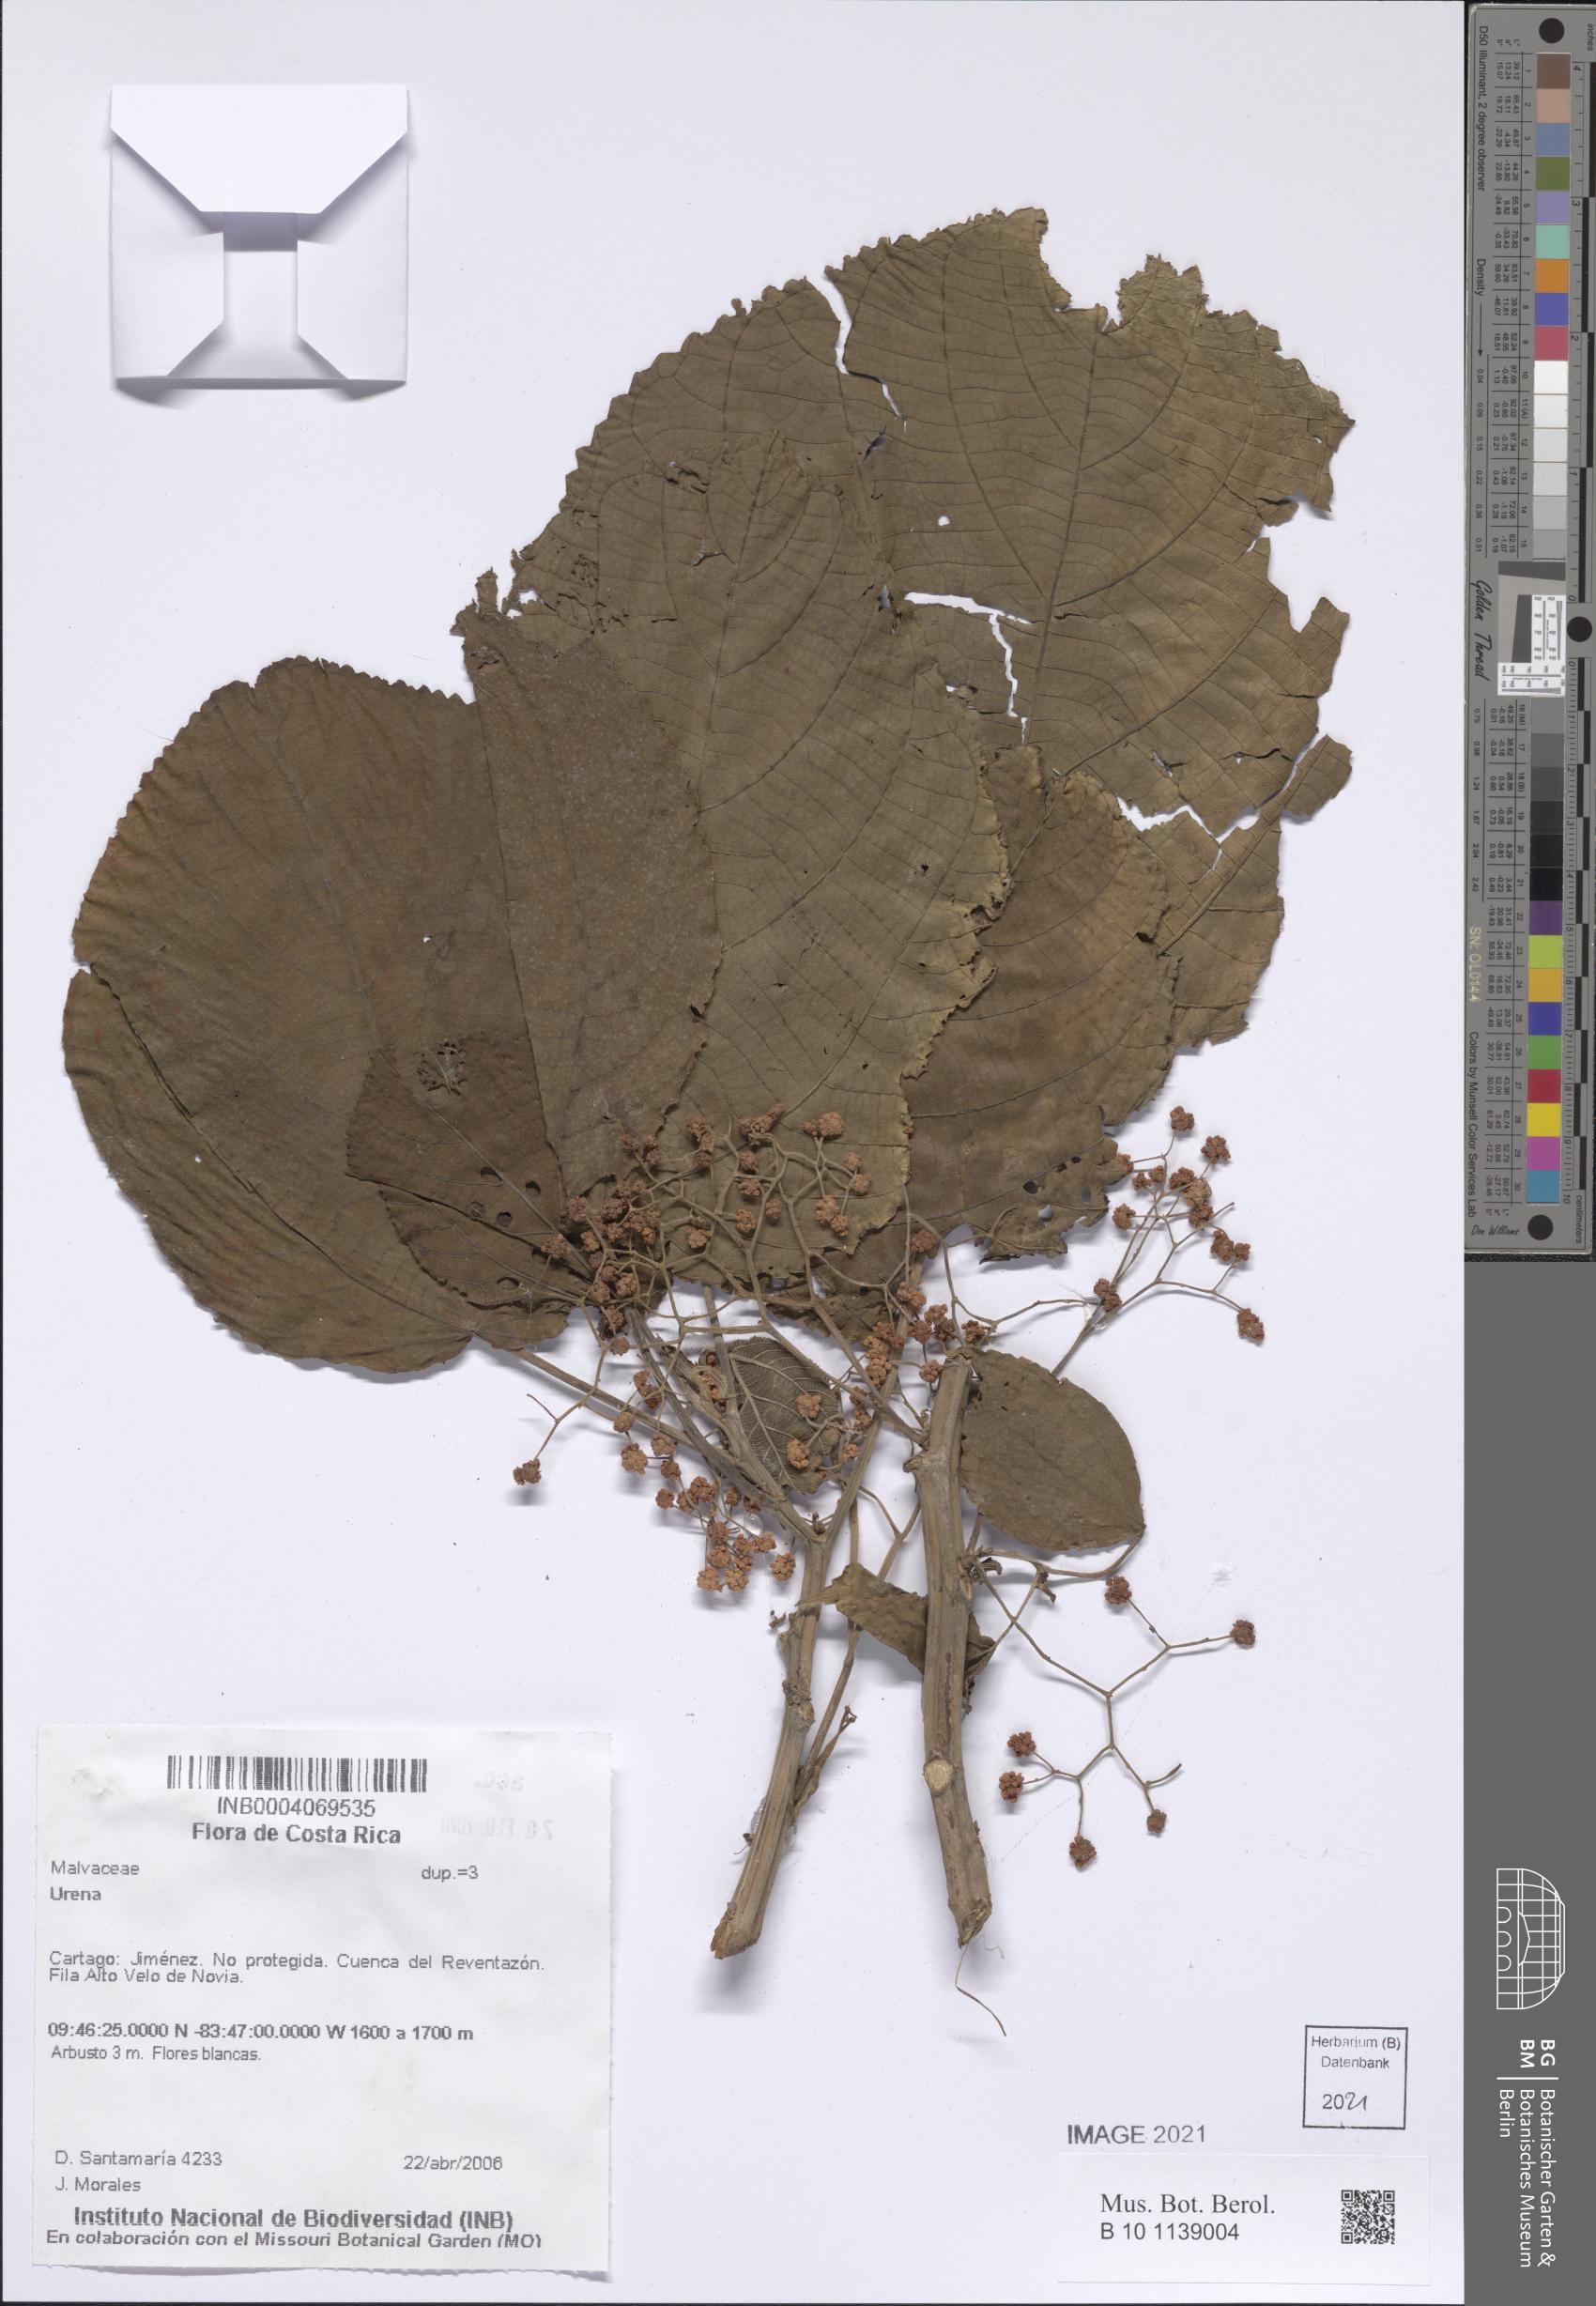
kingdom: Plantae
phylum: Tracheophyta
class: Magnoliopsida
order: Malvales
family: Malvaceae
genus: Urena
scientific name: Urena
